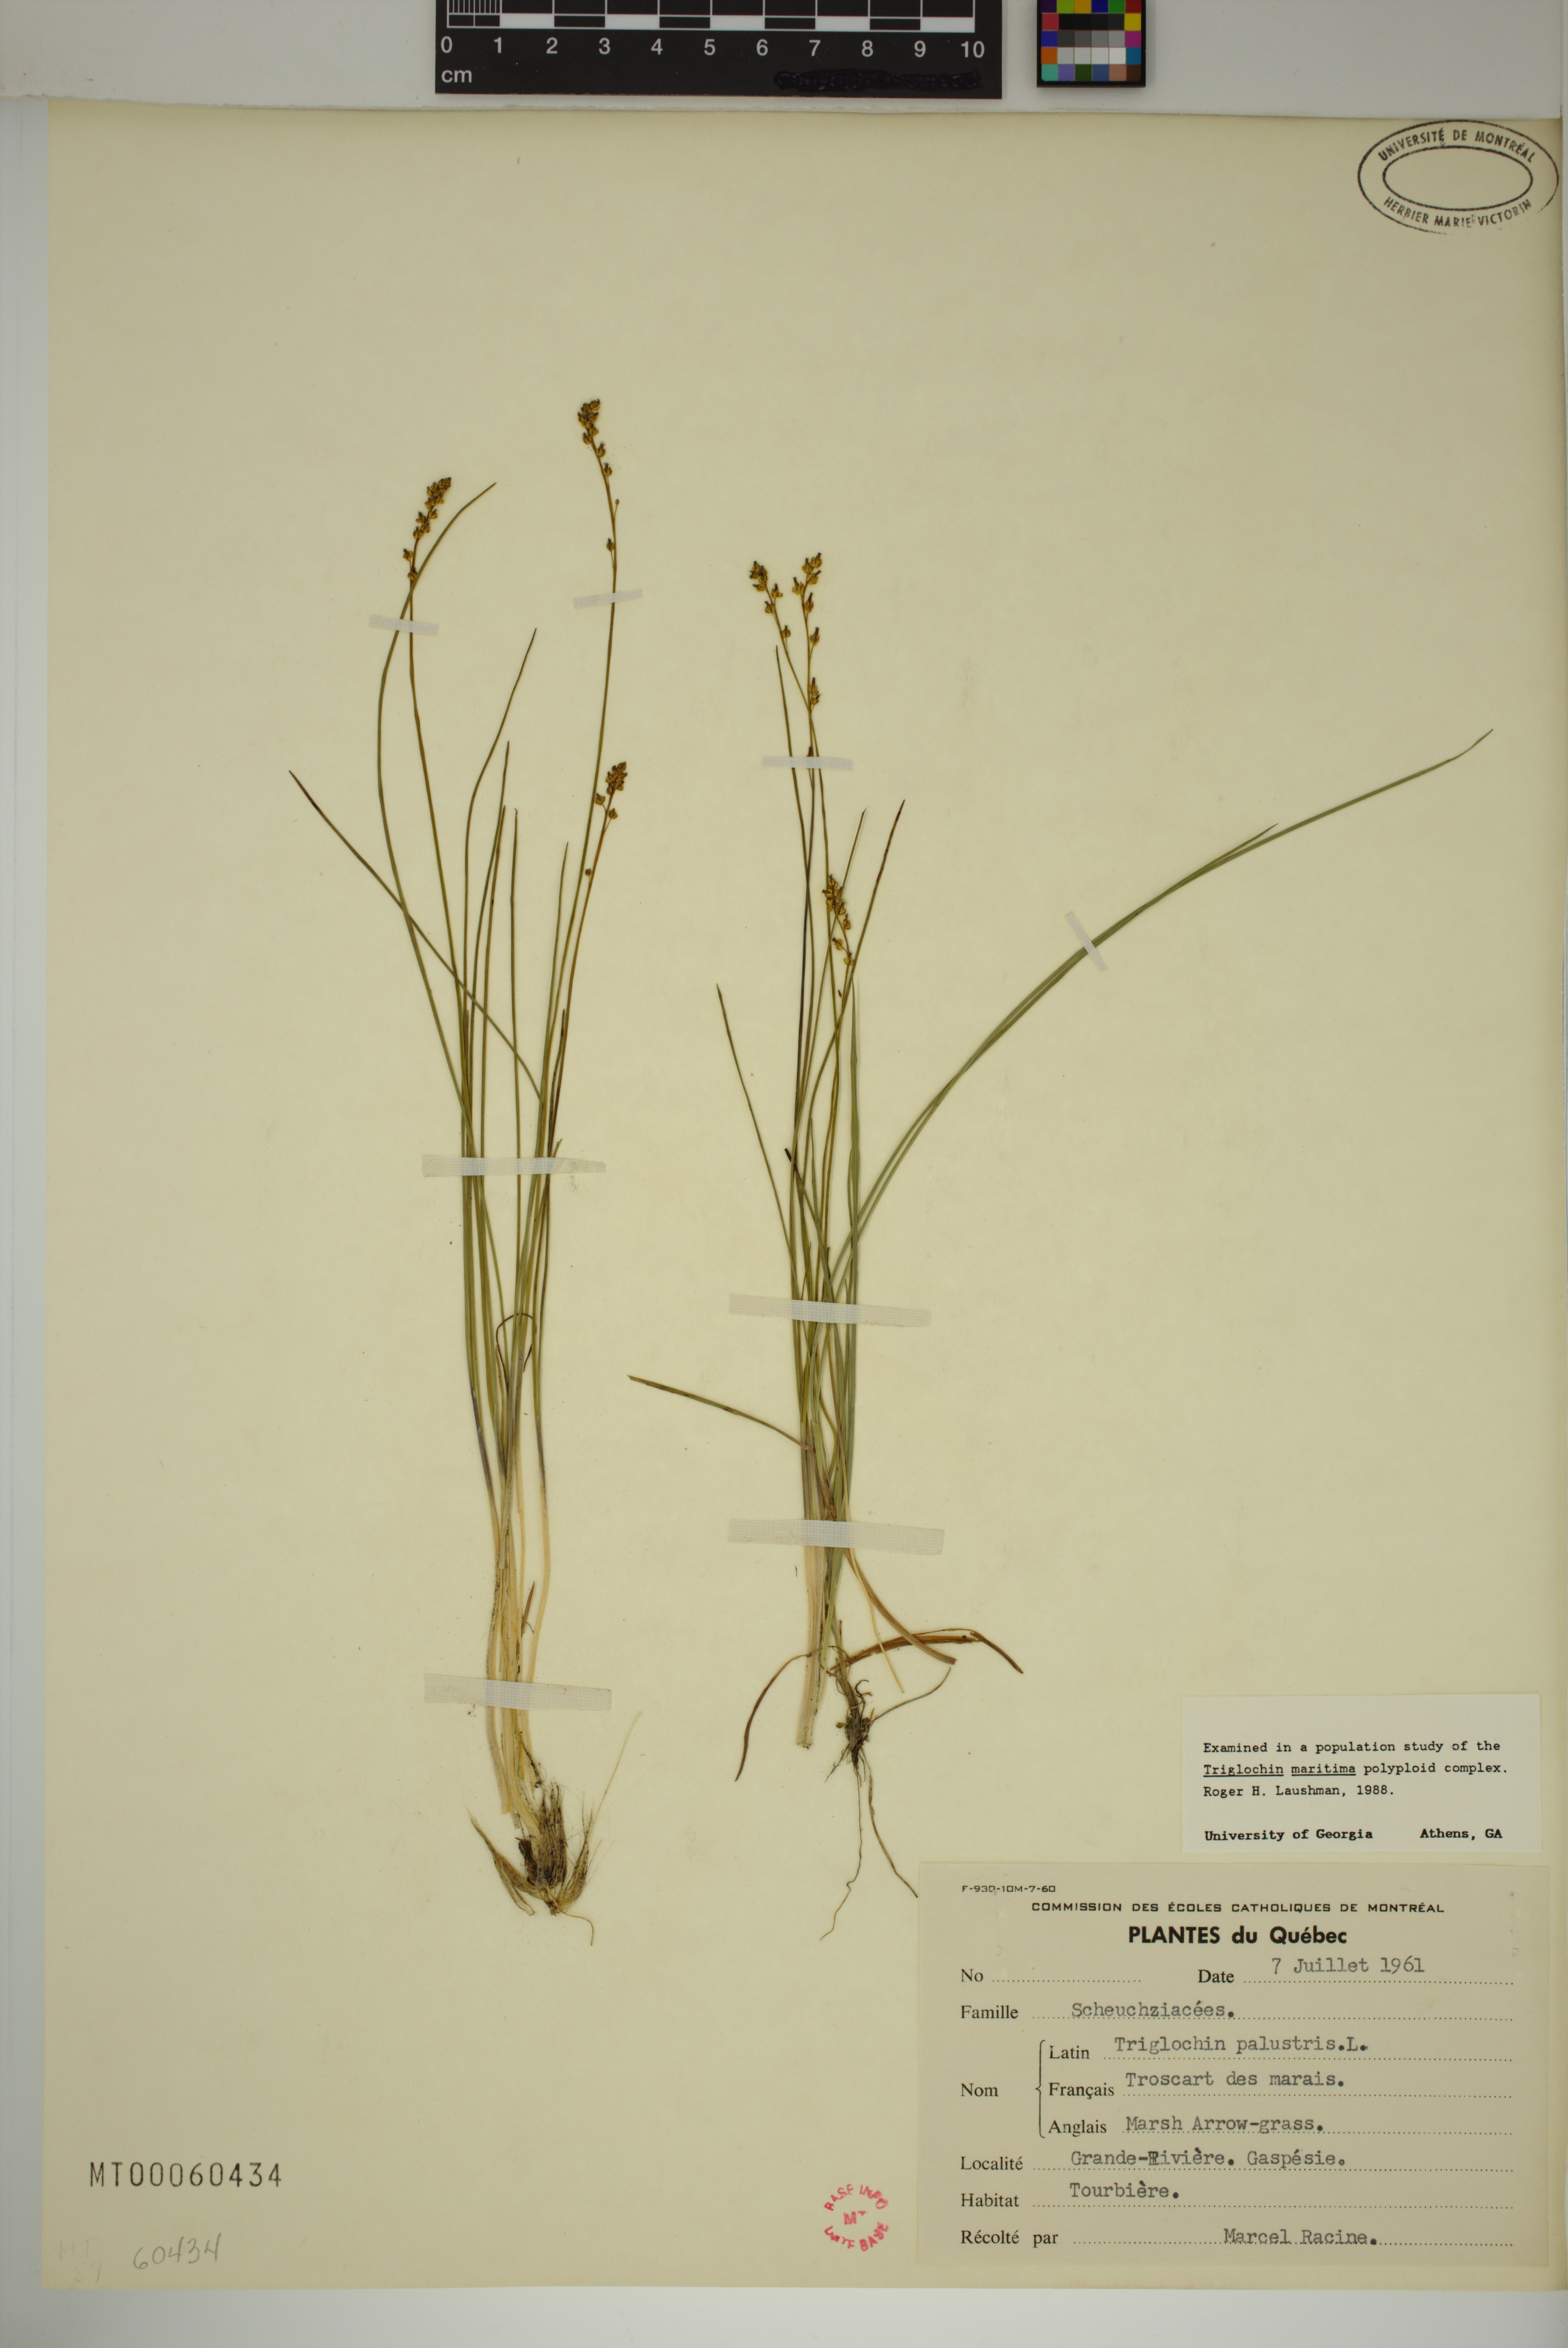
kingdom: Plantae
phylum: Tracheophyta
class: Liliopsida
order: Alismatales
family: Juncaginaceae
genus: Triglochin
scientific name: Triglochin palustris
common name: Marsh arrowgrass
